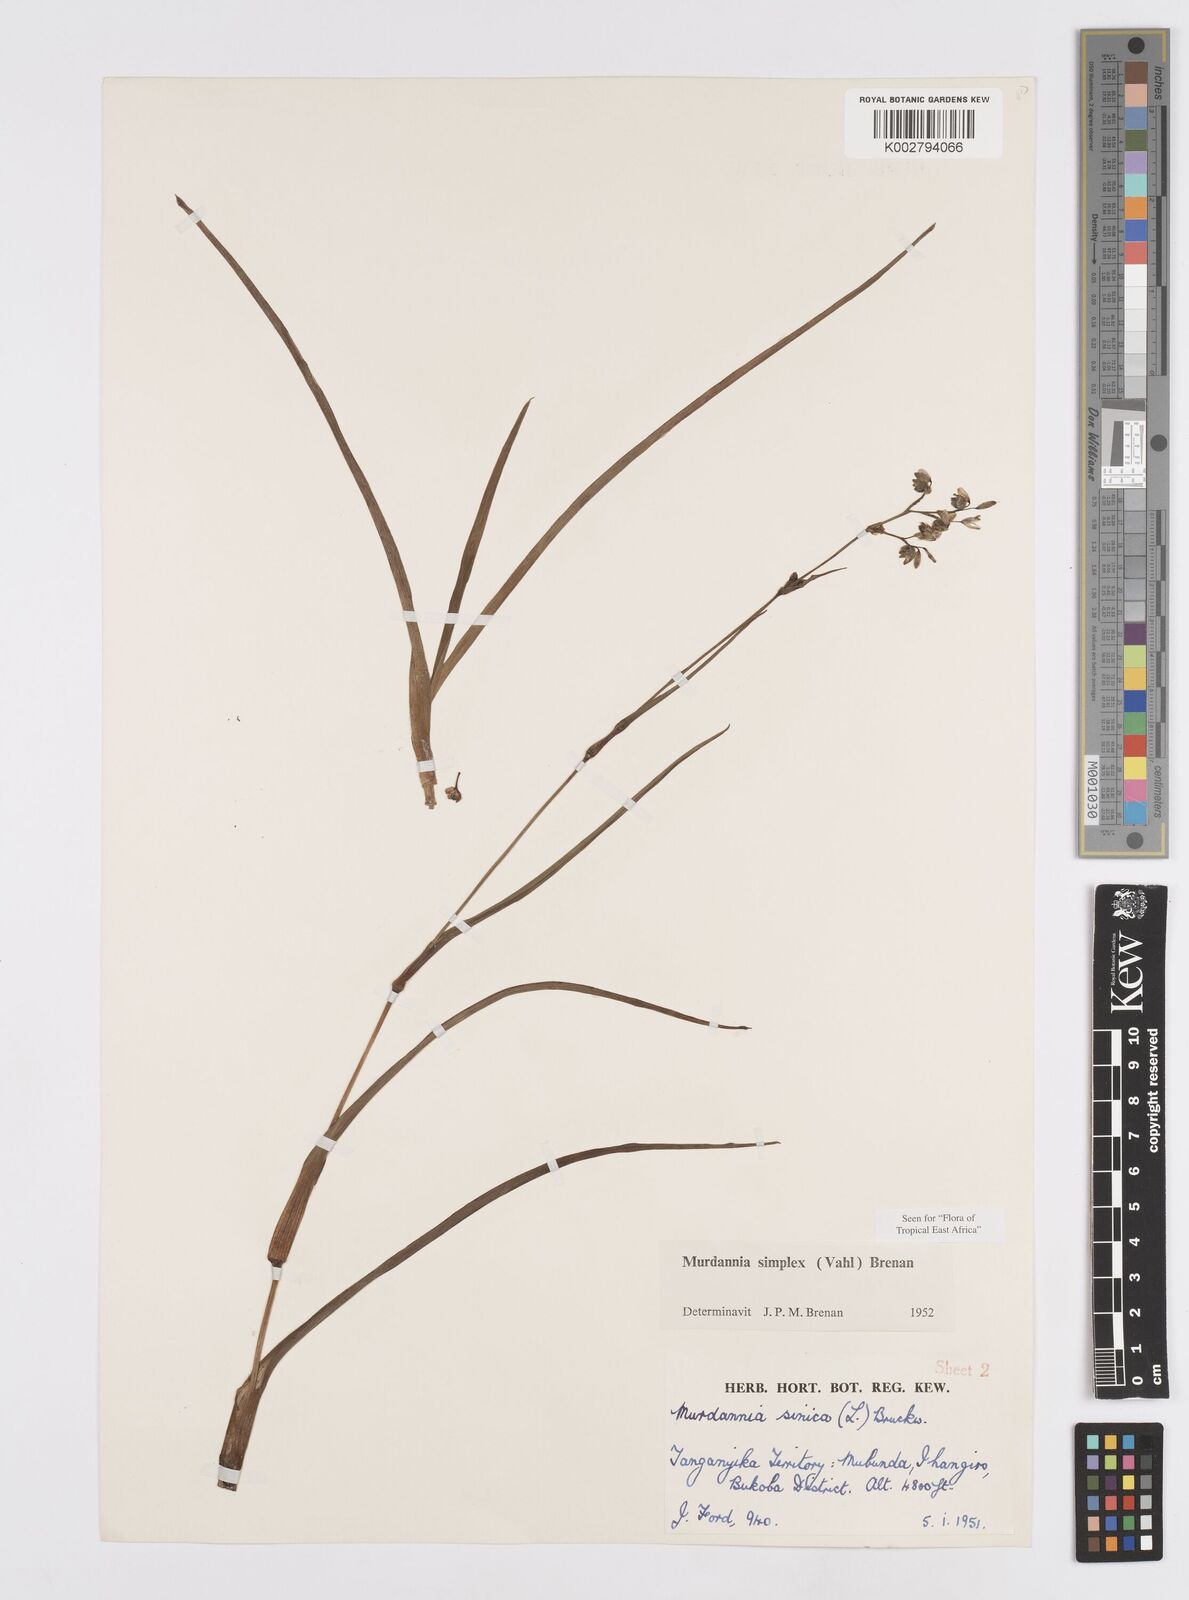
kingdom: Plantae
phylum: Tracheophyta
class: Liliopsida
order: Commelinales
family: Commelinaceae
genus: Murdannia
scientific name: Murdannia simplex
